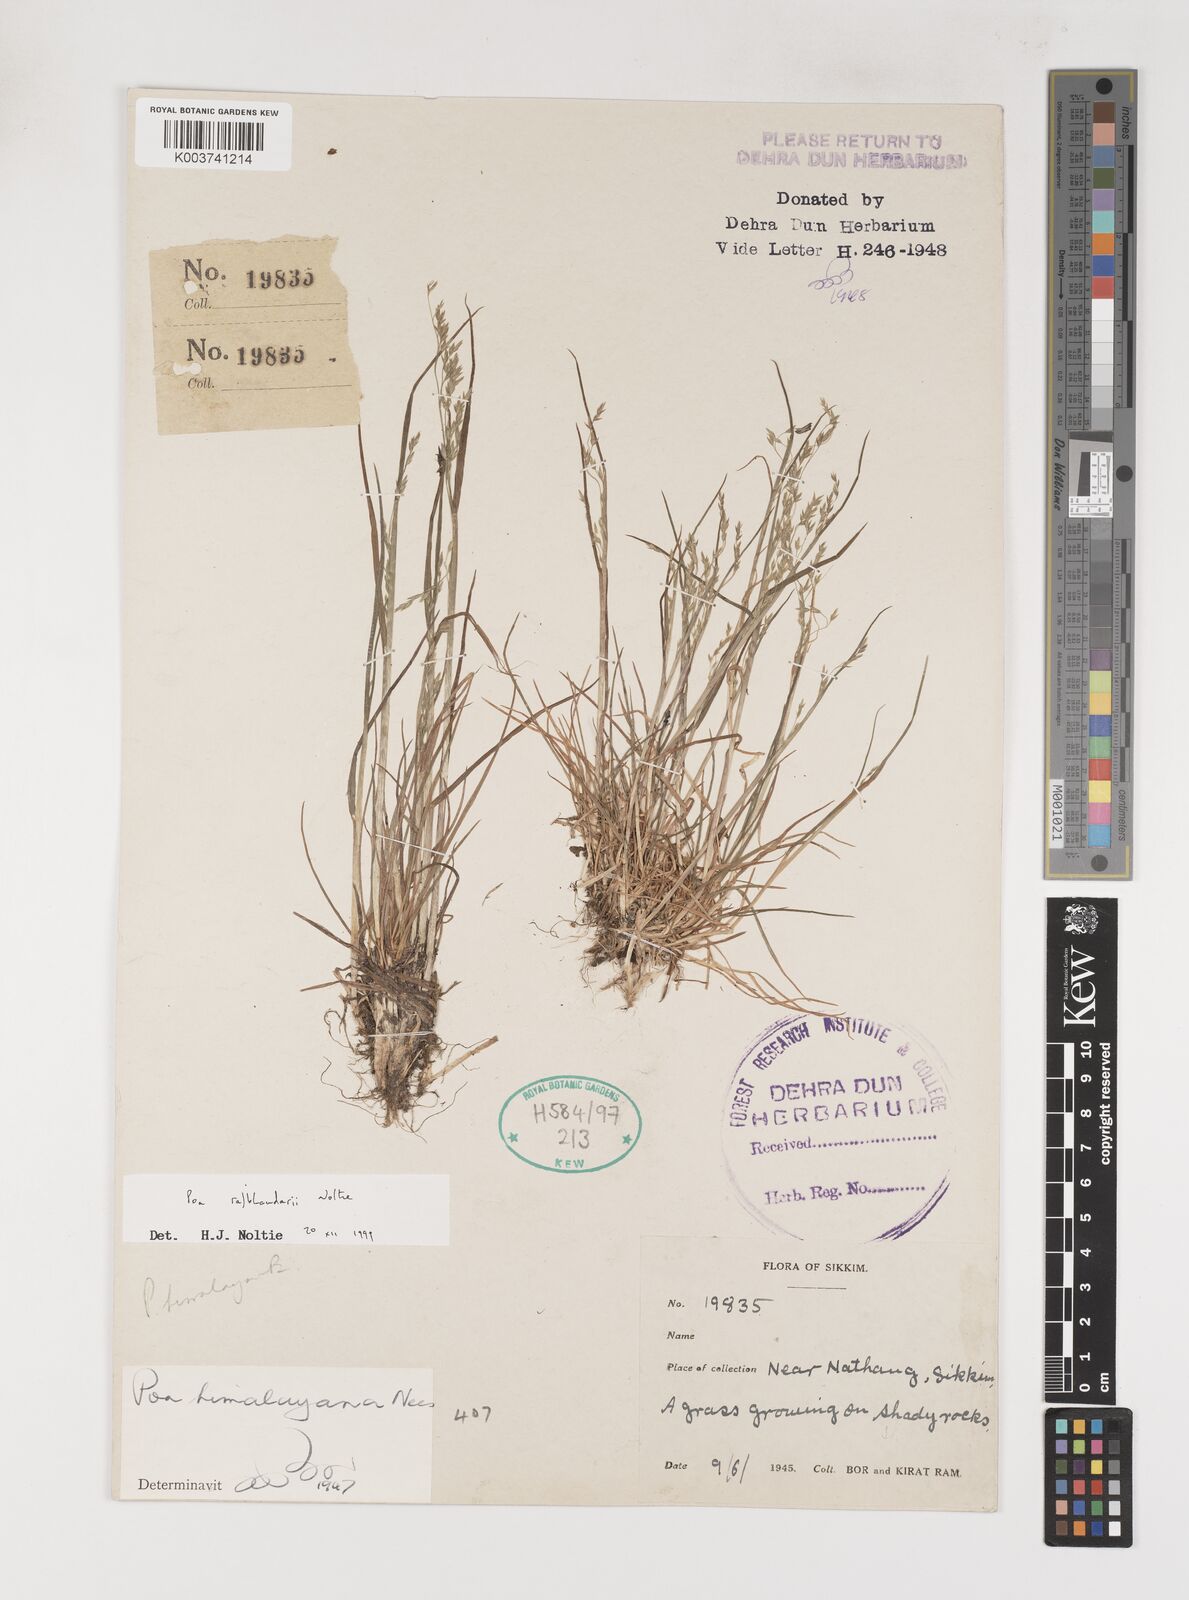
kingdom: Plantae
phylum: Tracheophyta
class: Liliopsida
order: Poales
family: Poaceae
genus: Poa
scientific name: Poa rajbhandarii
